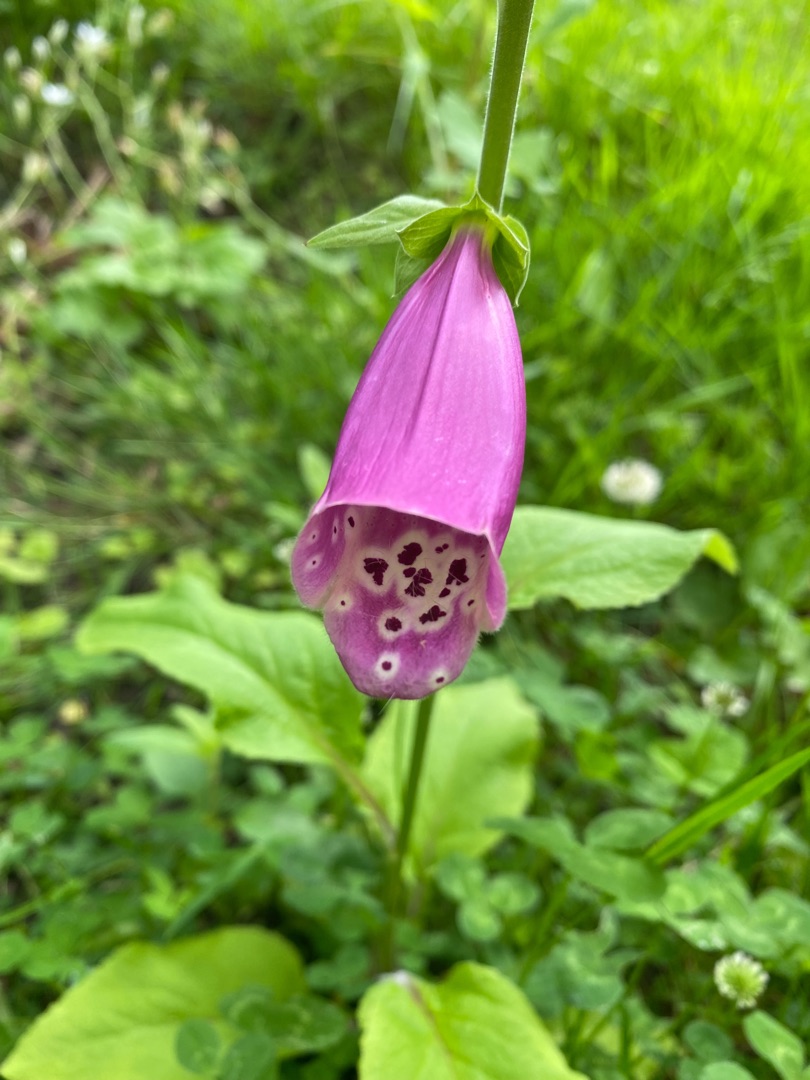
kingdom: Plantae
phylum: Tracheophyta
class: Magnoliopsida
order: Lamiales
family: Plantaginaceae
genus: Digitalis
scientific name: Digitalis purpurea
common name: Almindelig fingerbøl
